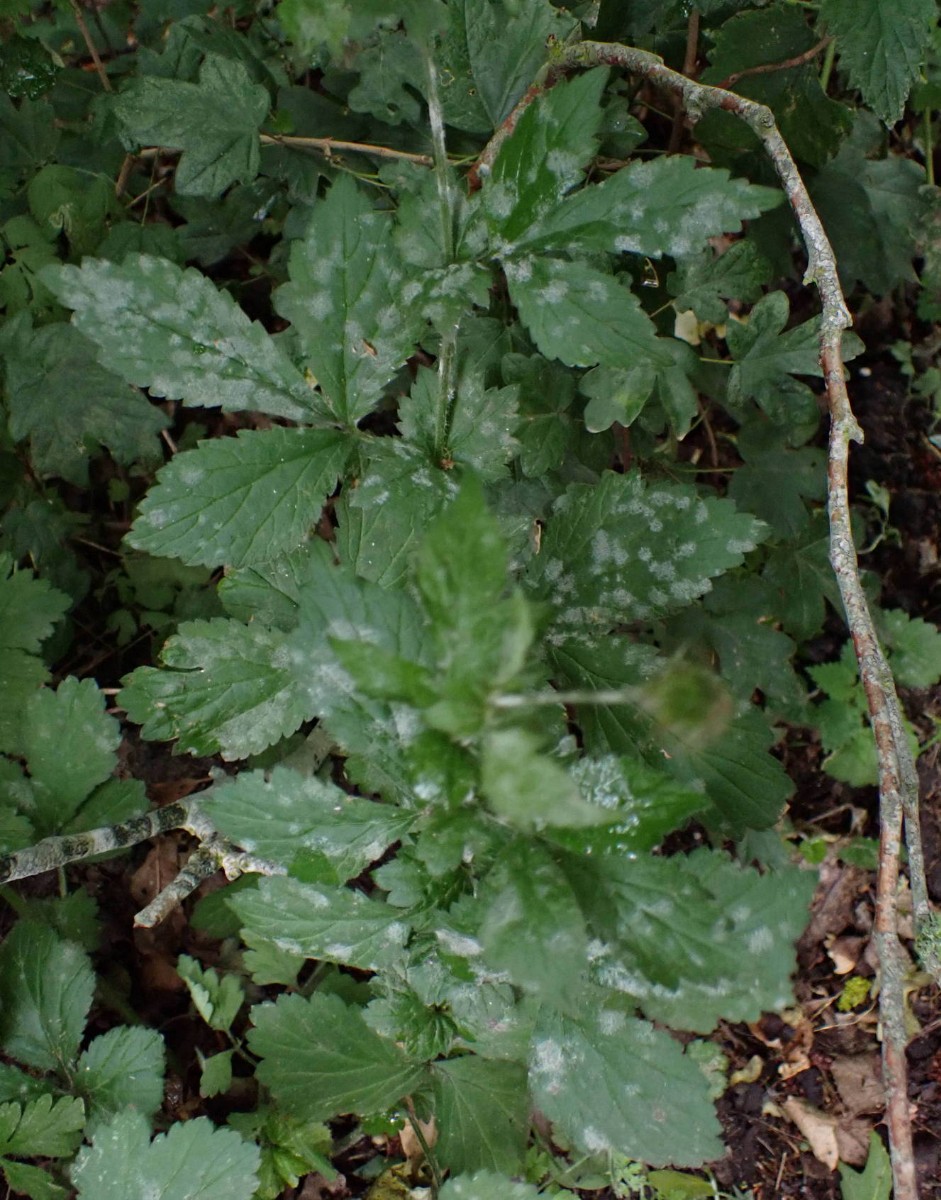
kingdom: Fungi
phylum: Ascomycota
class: Leotiomycetes
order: Helotiales
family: Erysiphaceae
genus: Podosphaera
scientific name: Podosphaera aphanis
